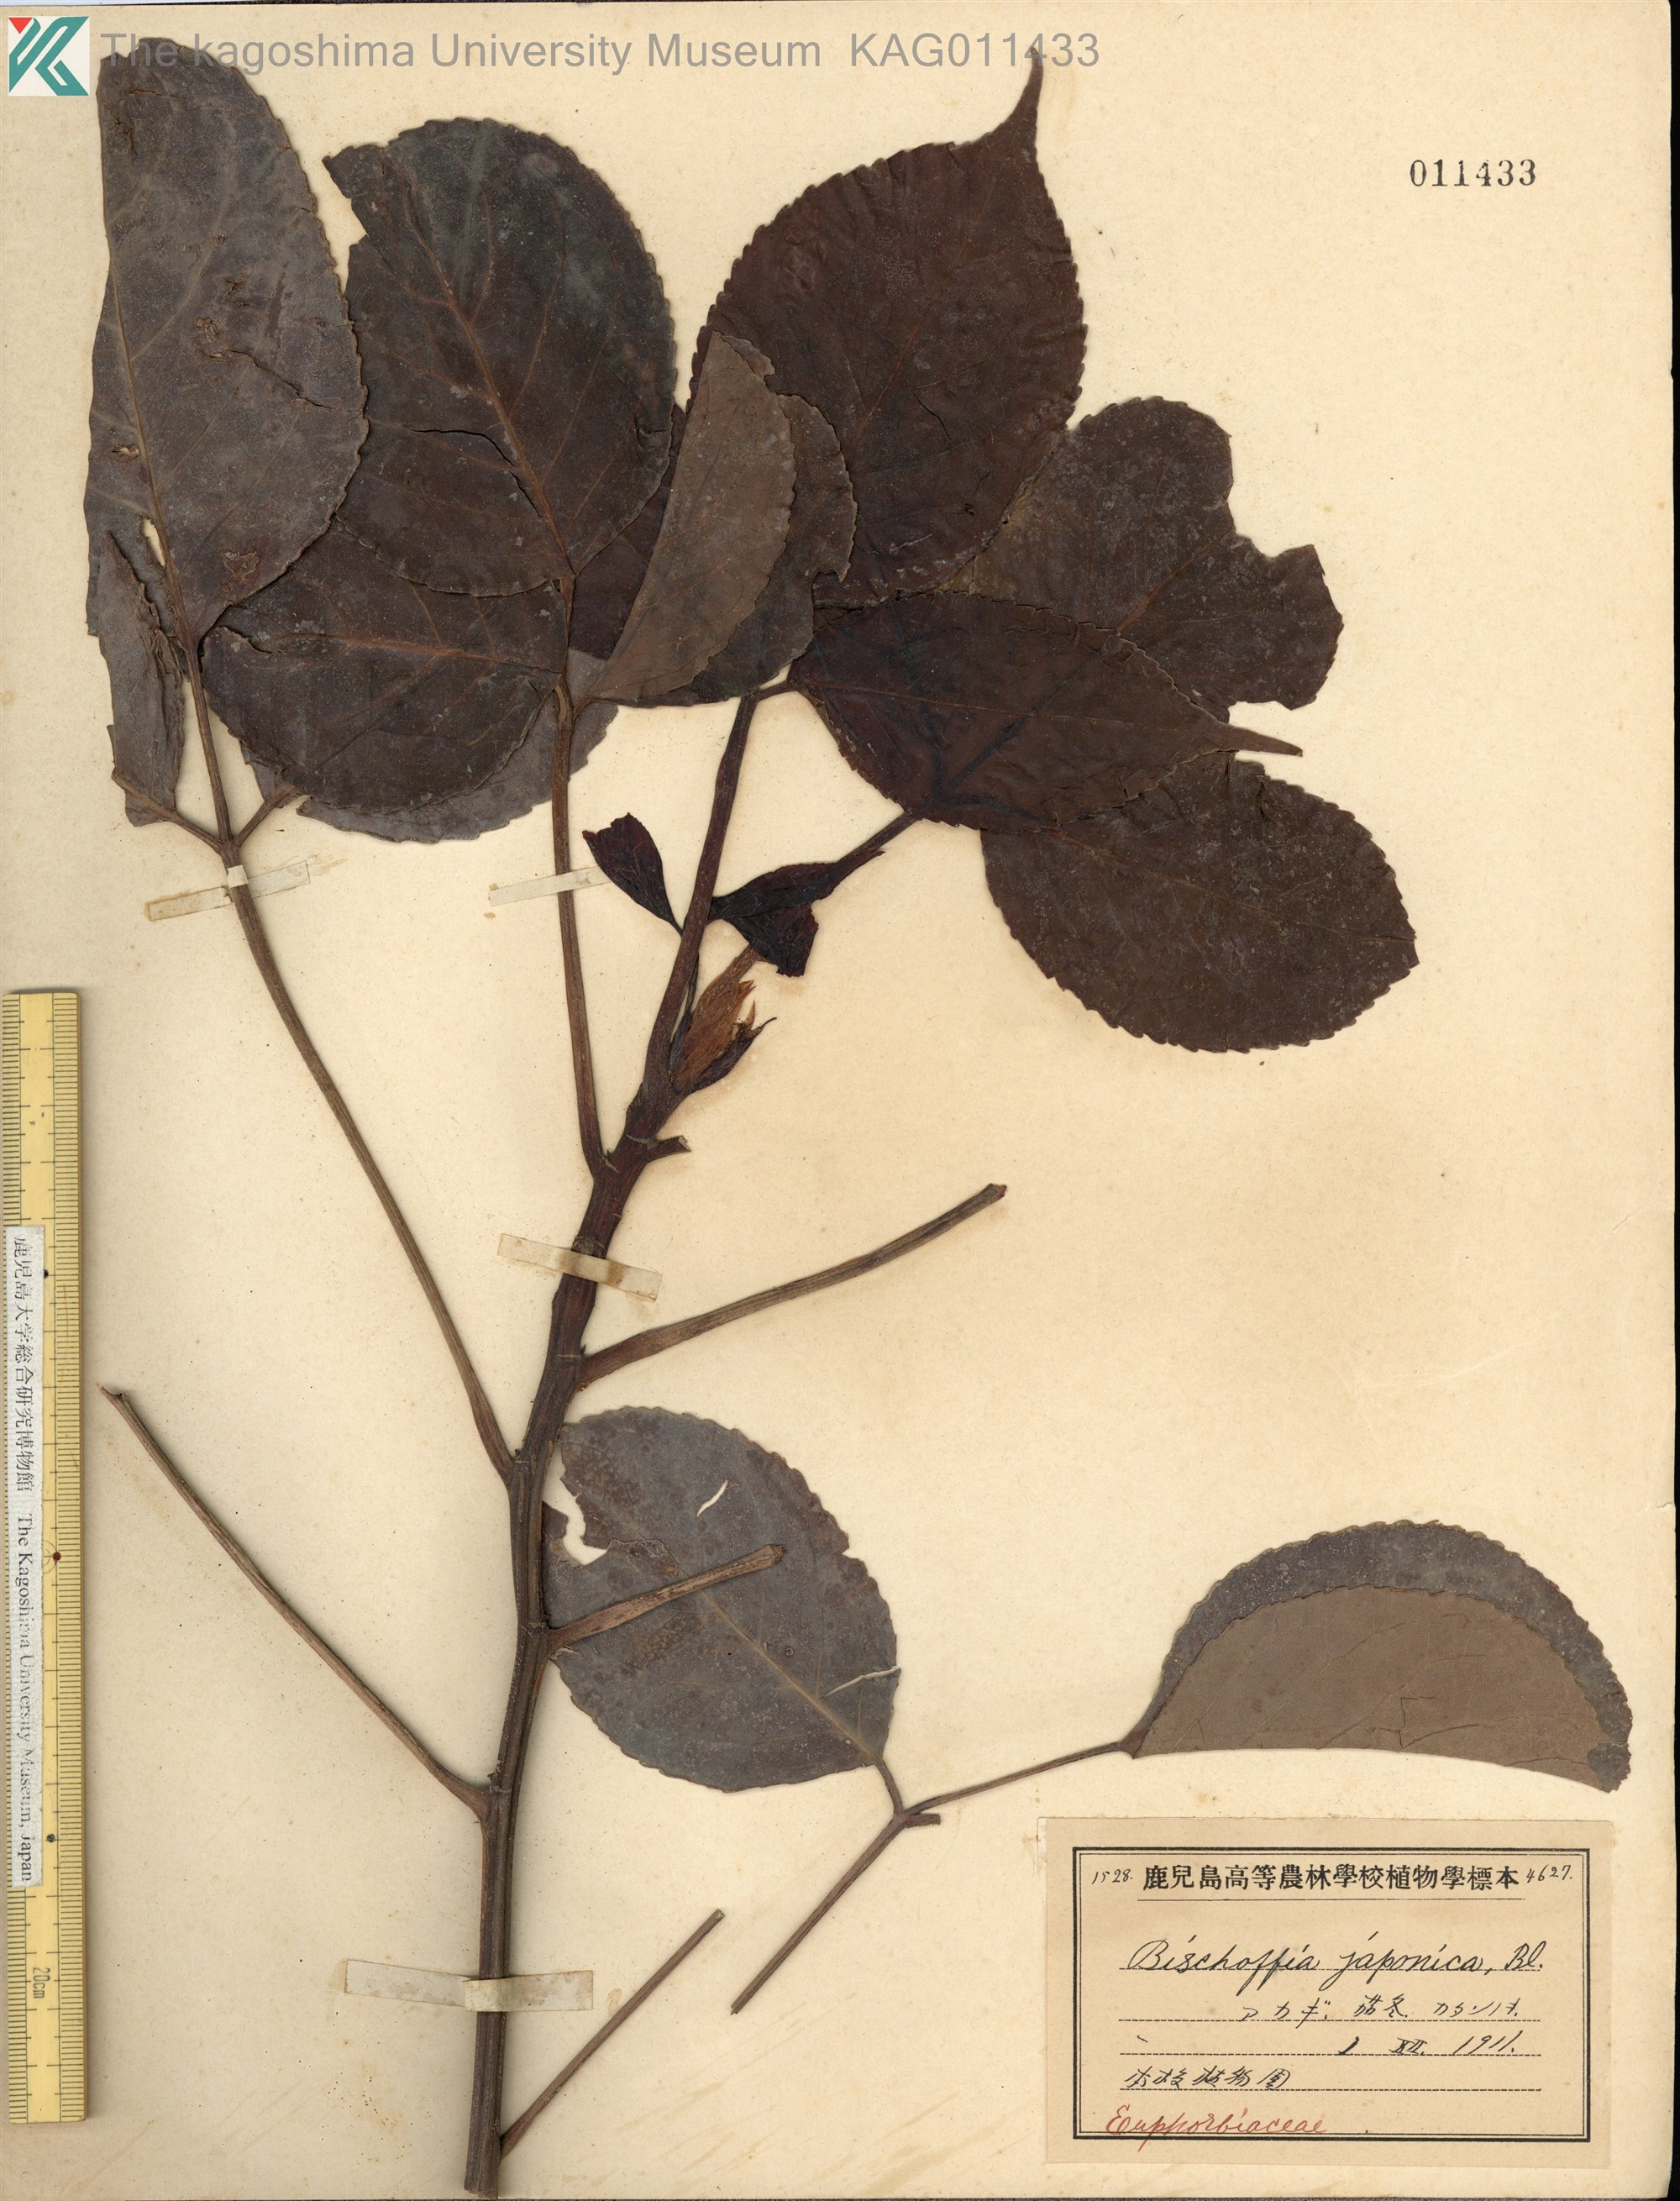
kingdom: Plantae
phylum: Tracheophyta
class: Magnoliopsida
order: Malpighiales
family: Phyllanthaceae
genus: Bischofia
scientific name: Bischofia javanica
